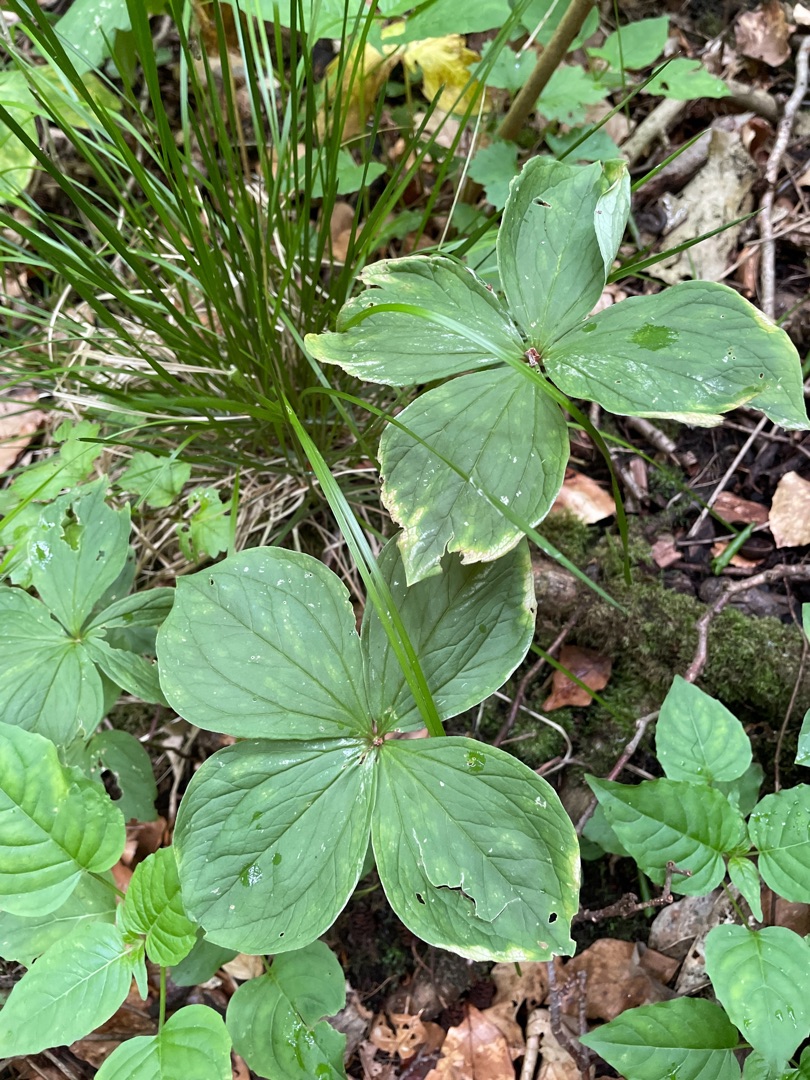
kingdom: Plantae
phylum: Tracheophyta
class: Liliopsida
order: Liliales
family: Melanthiaceae
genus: Paris
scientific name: Paris quadrifolia
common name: Firblad
